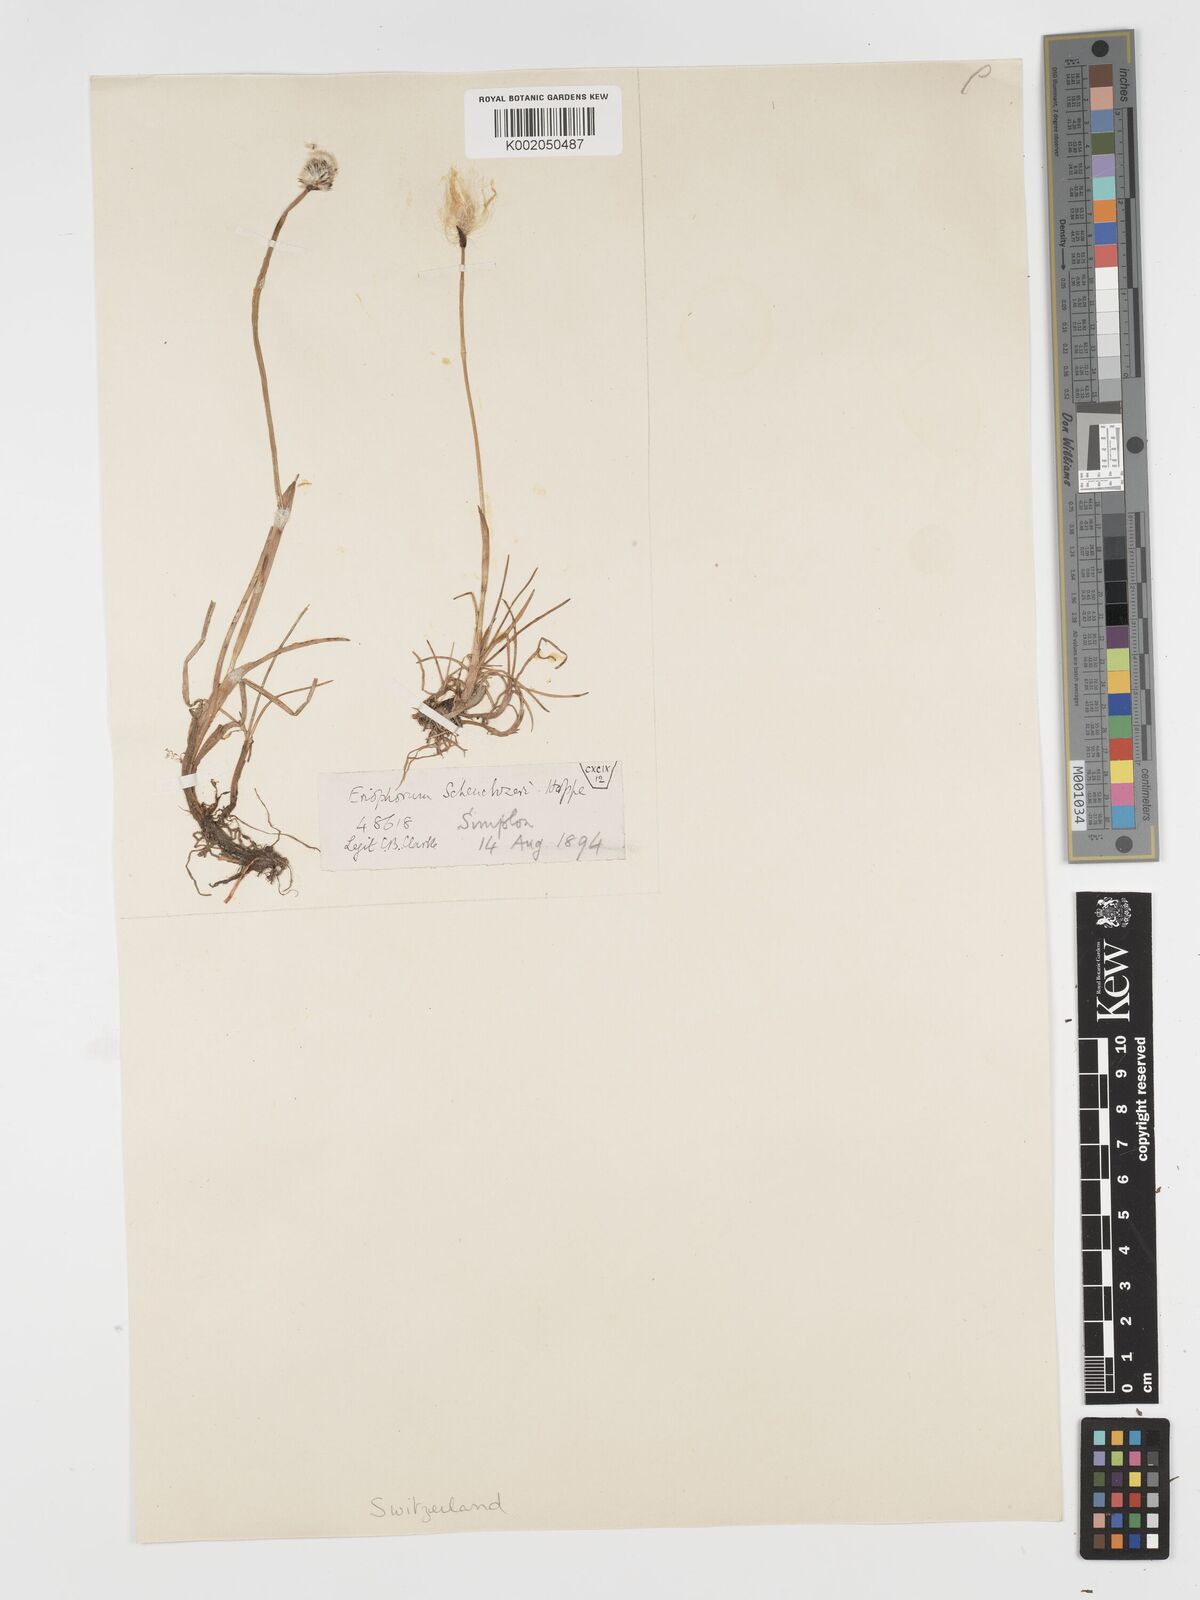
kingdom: Plantae
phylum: Tracheophyta
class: Liliopsida
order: Poales
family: Cyperaceae
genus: Eriophorum
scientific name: Eriophorum scheuchzeri
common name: Scheuchzer's cottongrass
